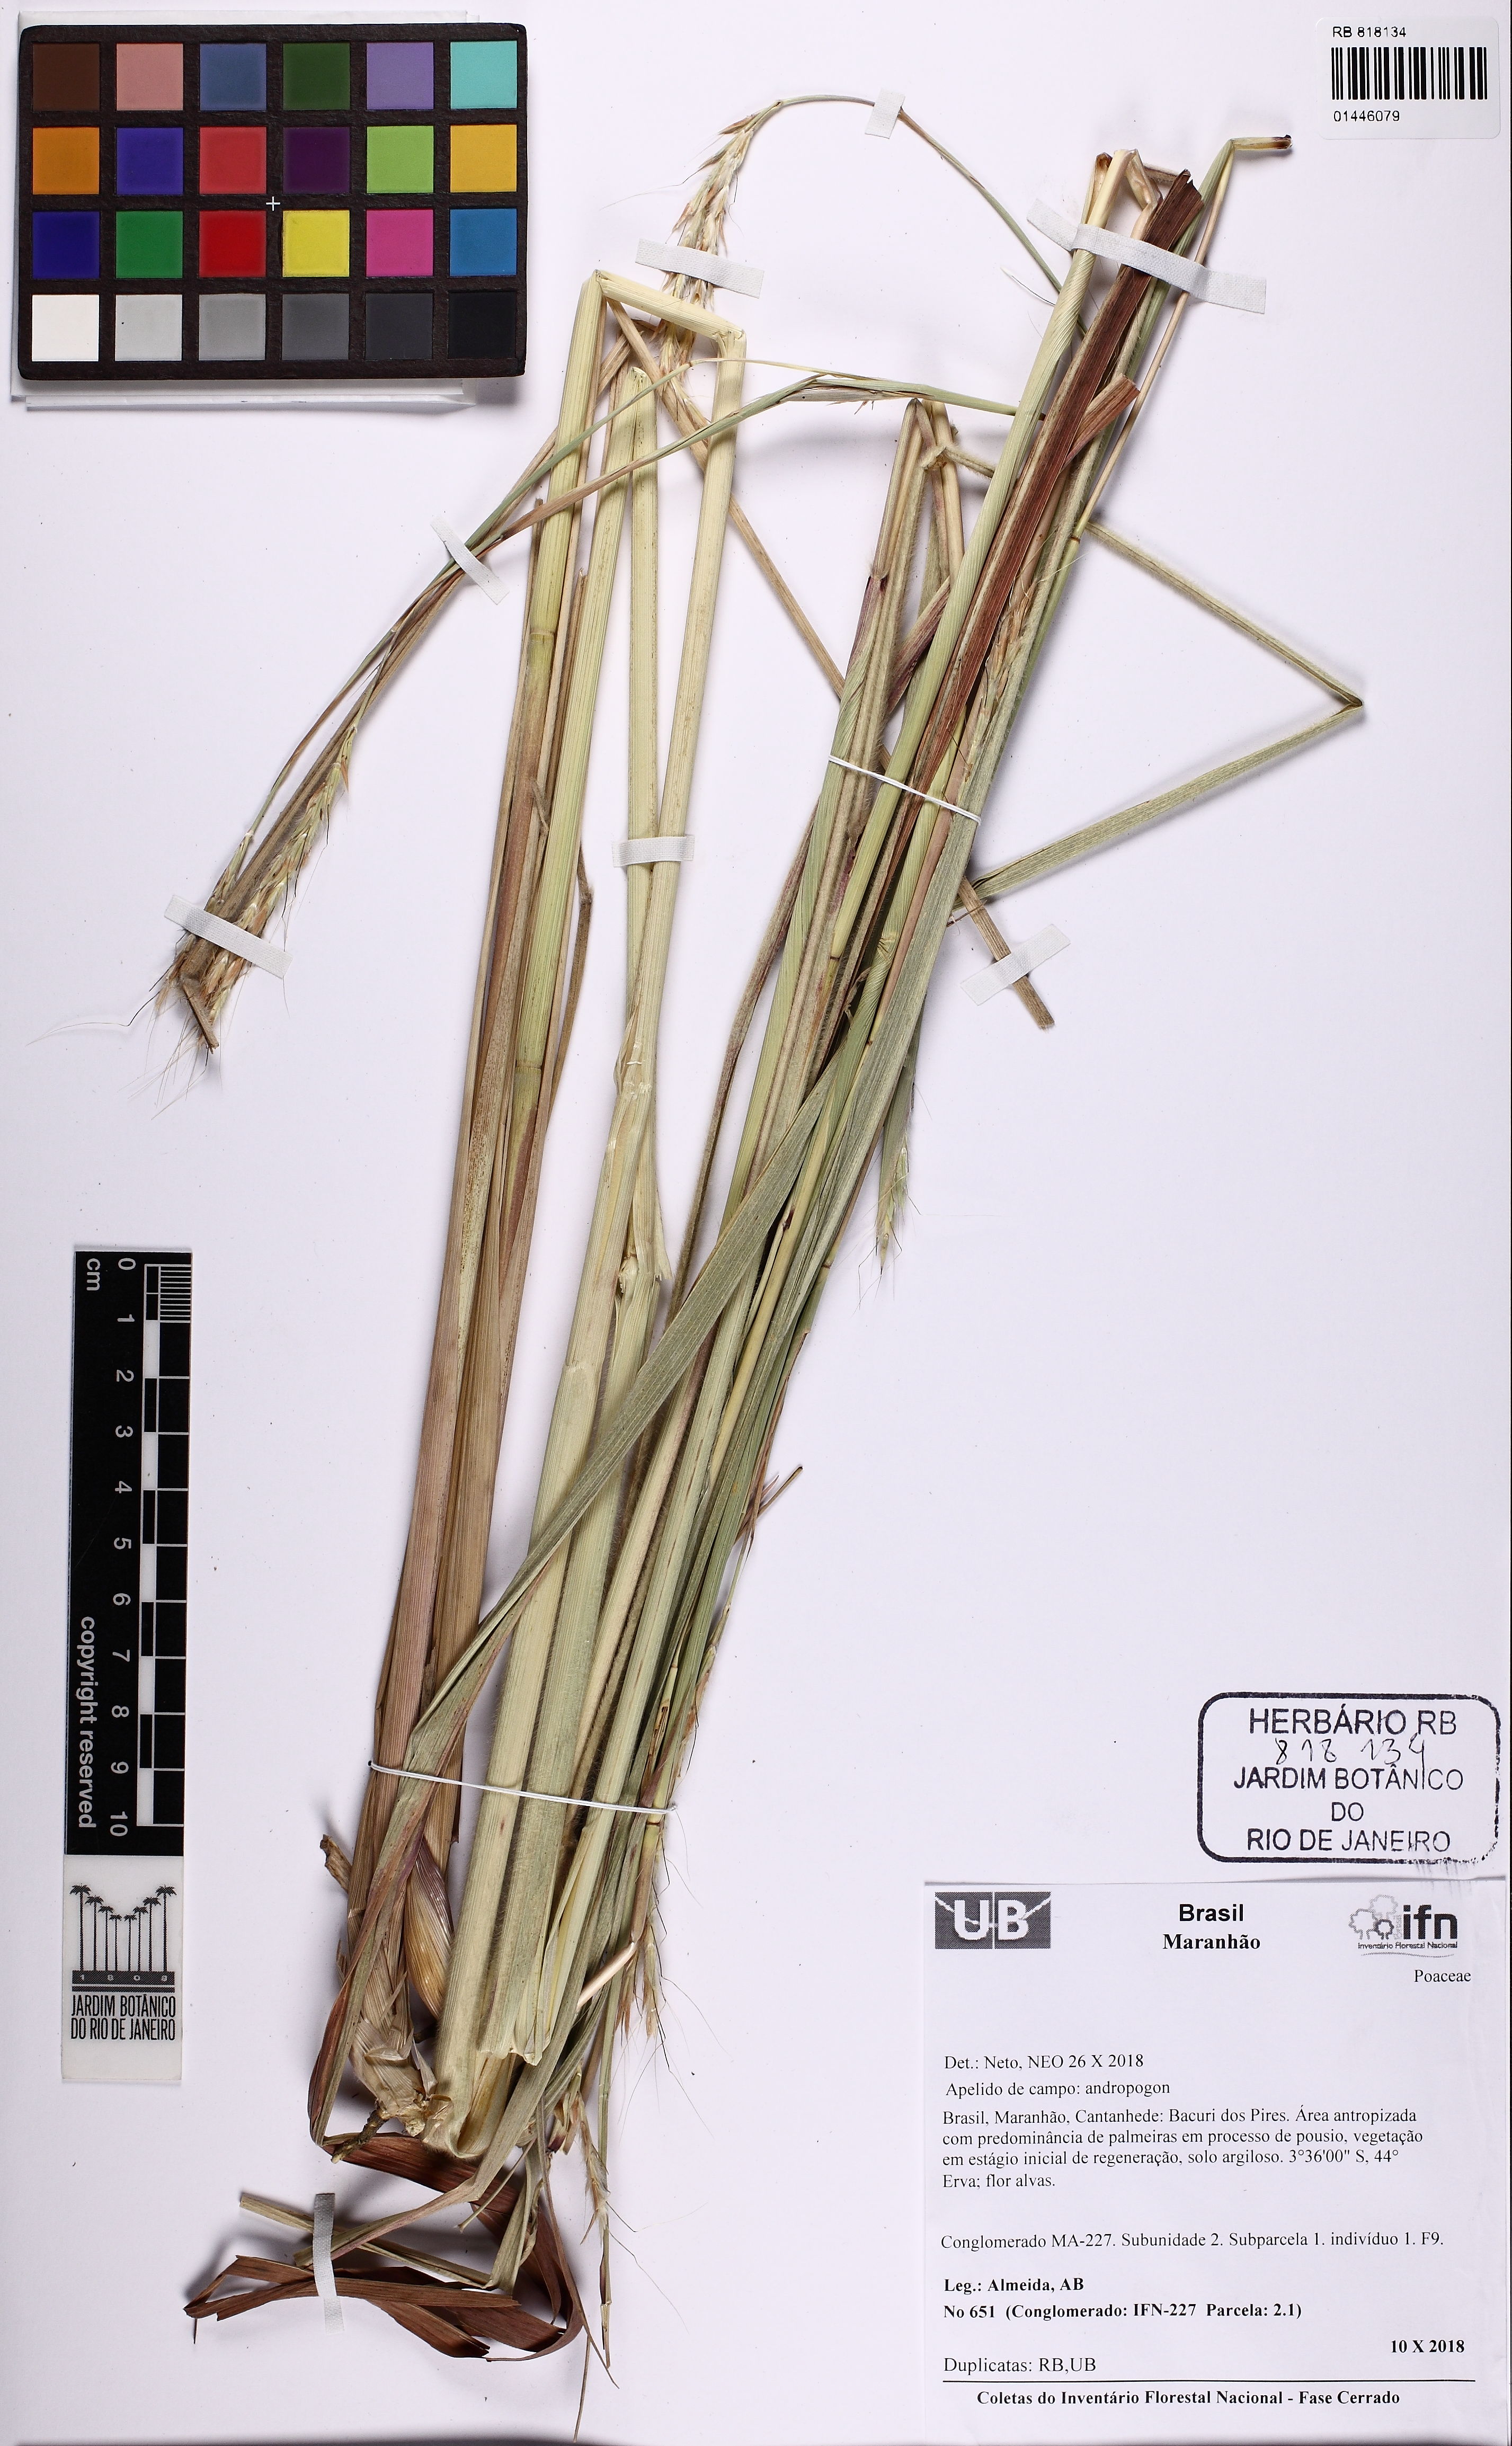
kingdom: Plantae
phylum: Tracheophyta
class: Liliopsida
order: Poales
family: Poaceae
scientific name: Poaceae
